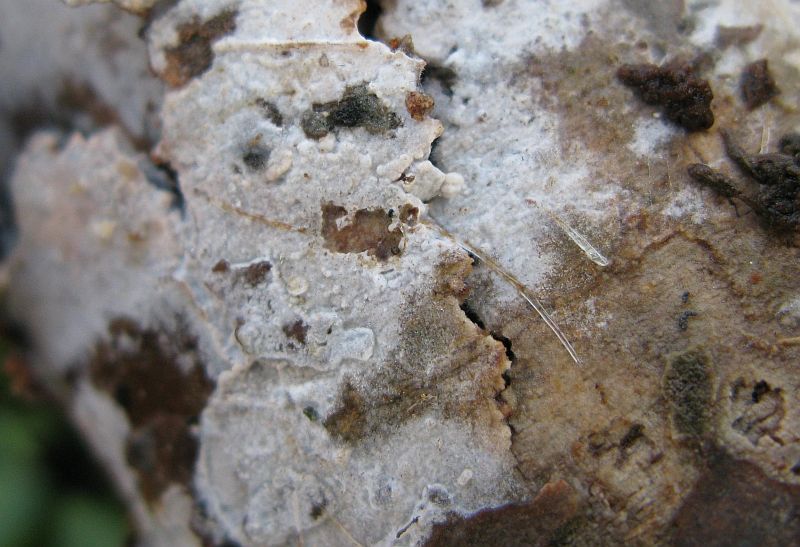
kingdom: Fungi
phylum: Basidiomycota
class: Agaricomycetes
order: Hymenochaetales
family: Rickenellaceae
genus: Peniophorella
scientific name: Peniophorella praetermissa
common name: almindelig kalkskind
